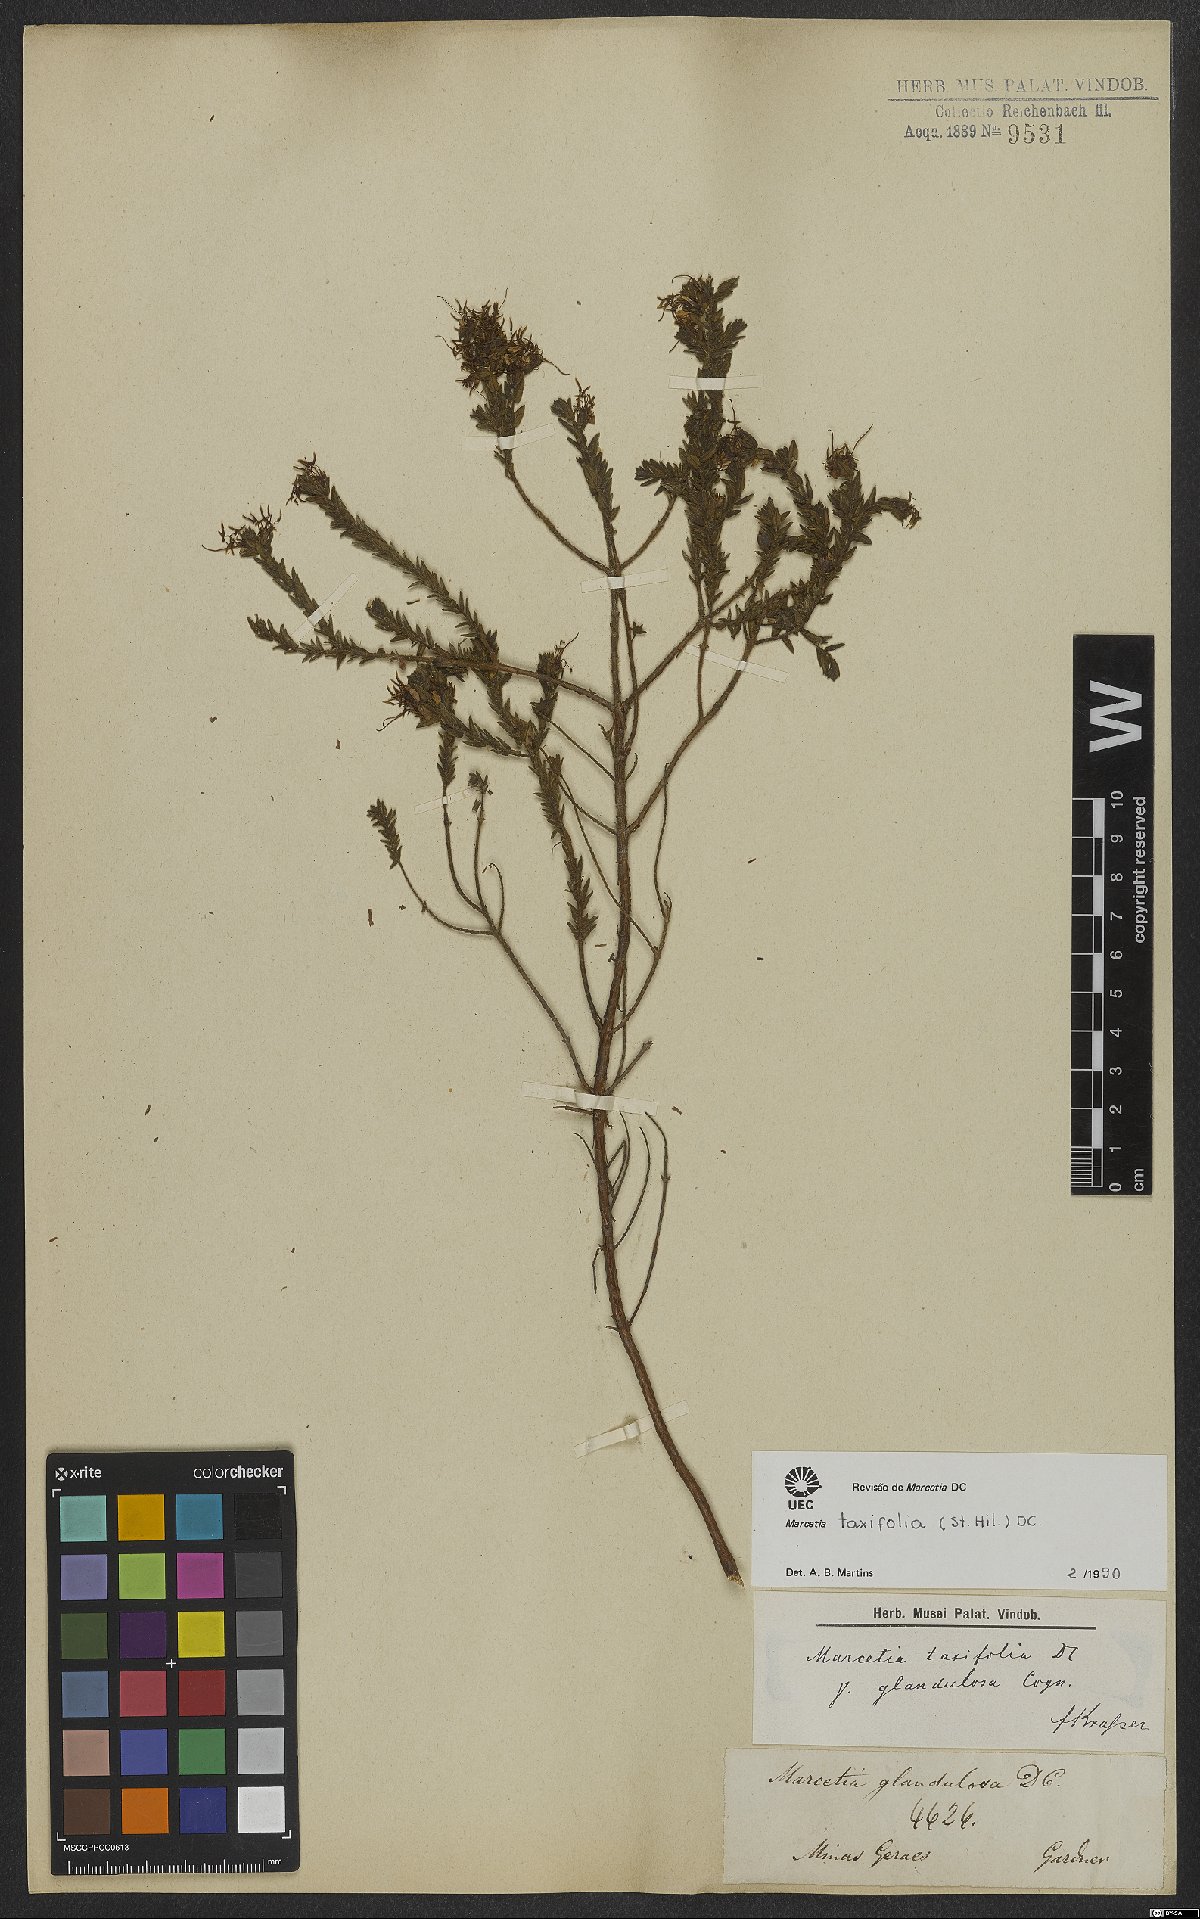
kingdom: Plantae
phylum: Tracheophyta
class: Magnoliopsida
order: Myrtales
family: Melastomataceae
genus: Marcetia
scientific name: Marcetia taxifolia
